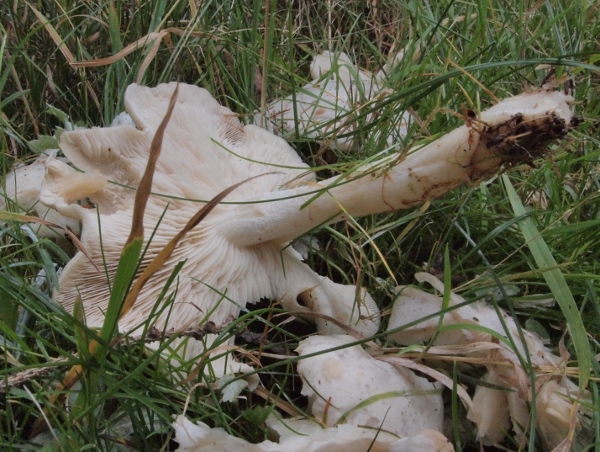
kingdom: Fungi
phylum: Basidiomycota
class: Agaricomycetes
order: Agaricales
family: Tricholomataceae
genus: Leucocybe
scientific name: Leucocybe connata
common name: knippe-tragthat
